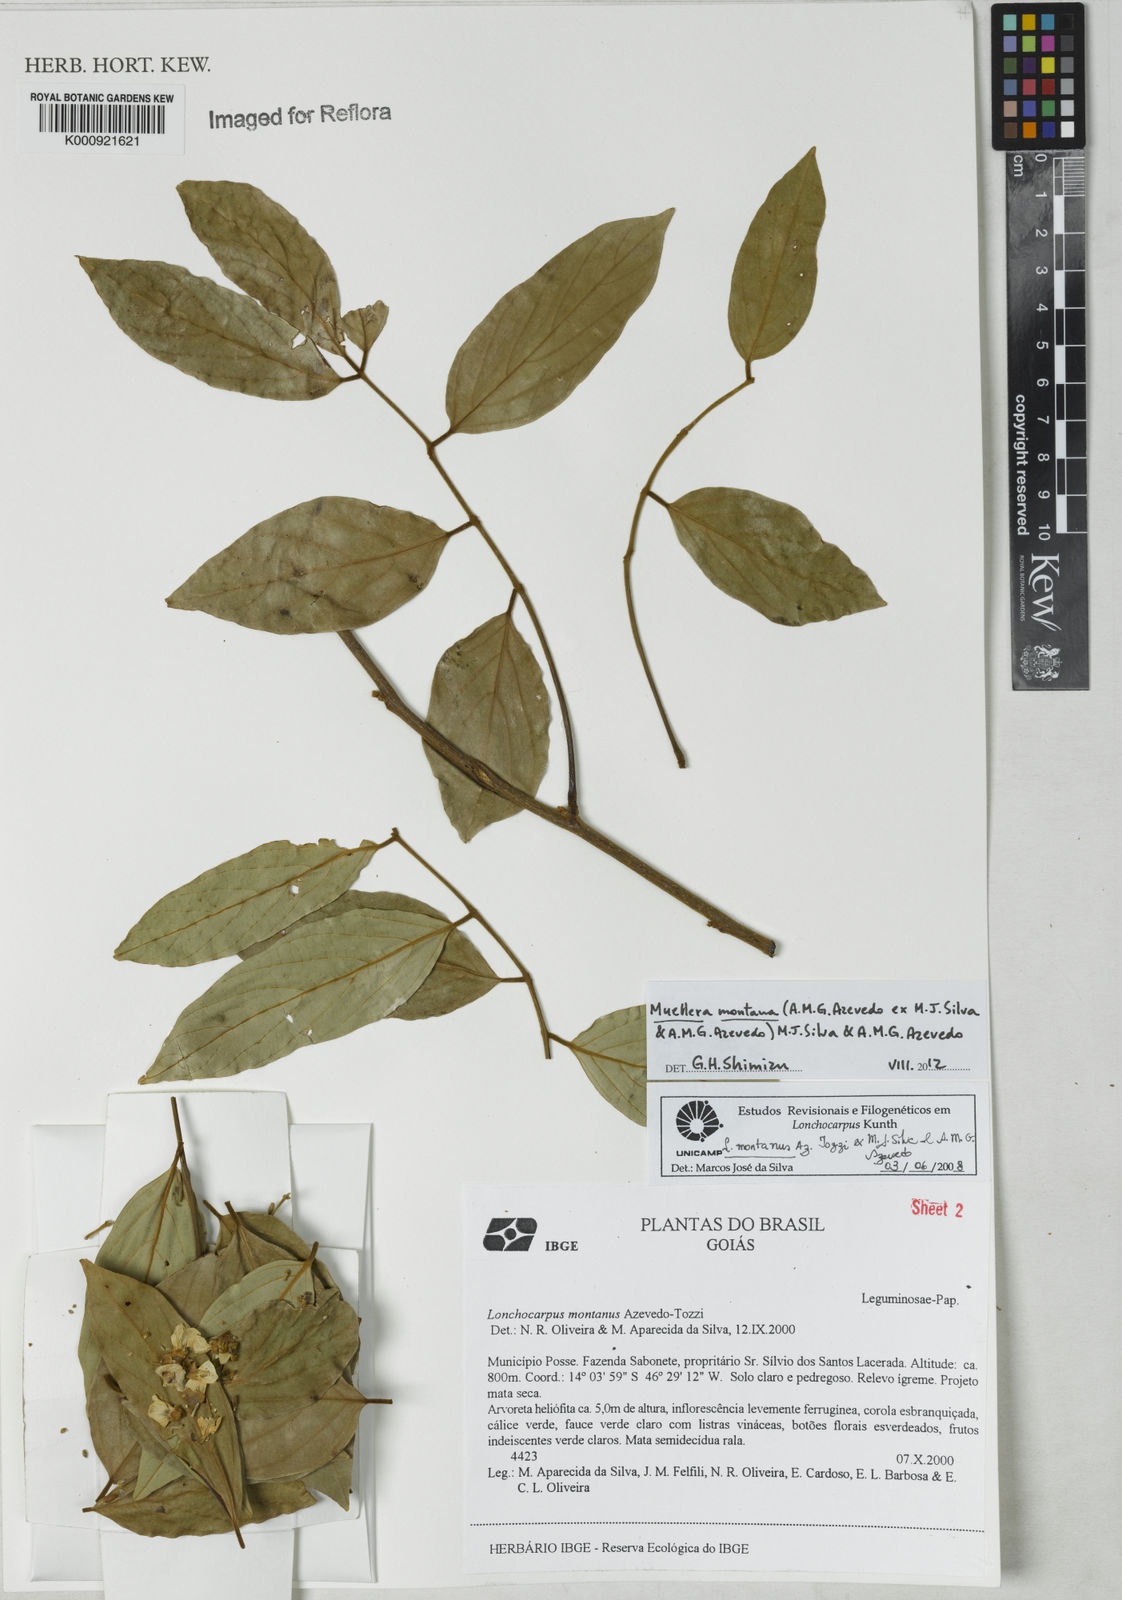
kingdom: Plantae
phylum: Tracheophyta
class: Magnoliopsida
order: Fabales
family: Fabaceae
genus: Muellera
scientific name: Muellera montana
